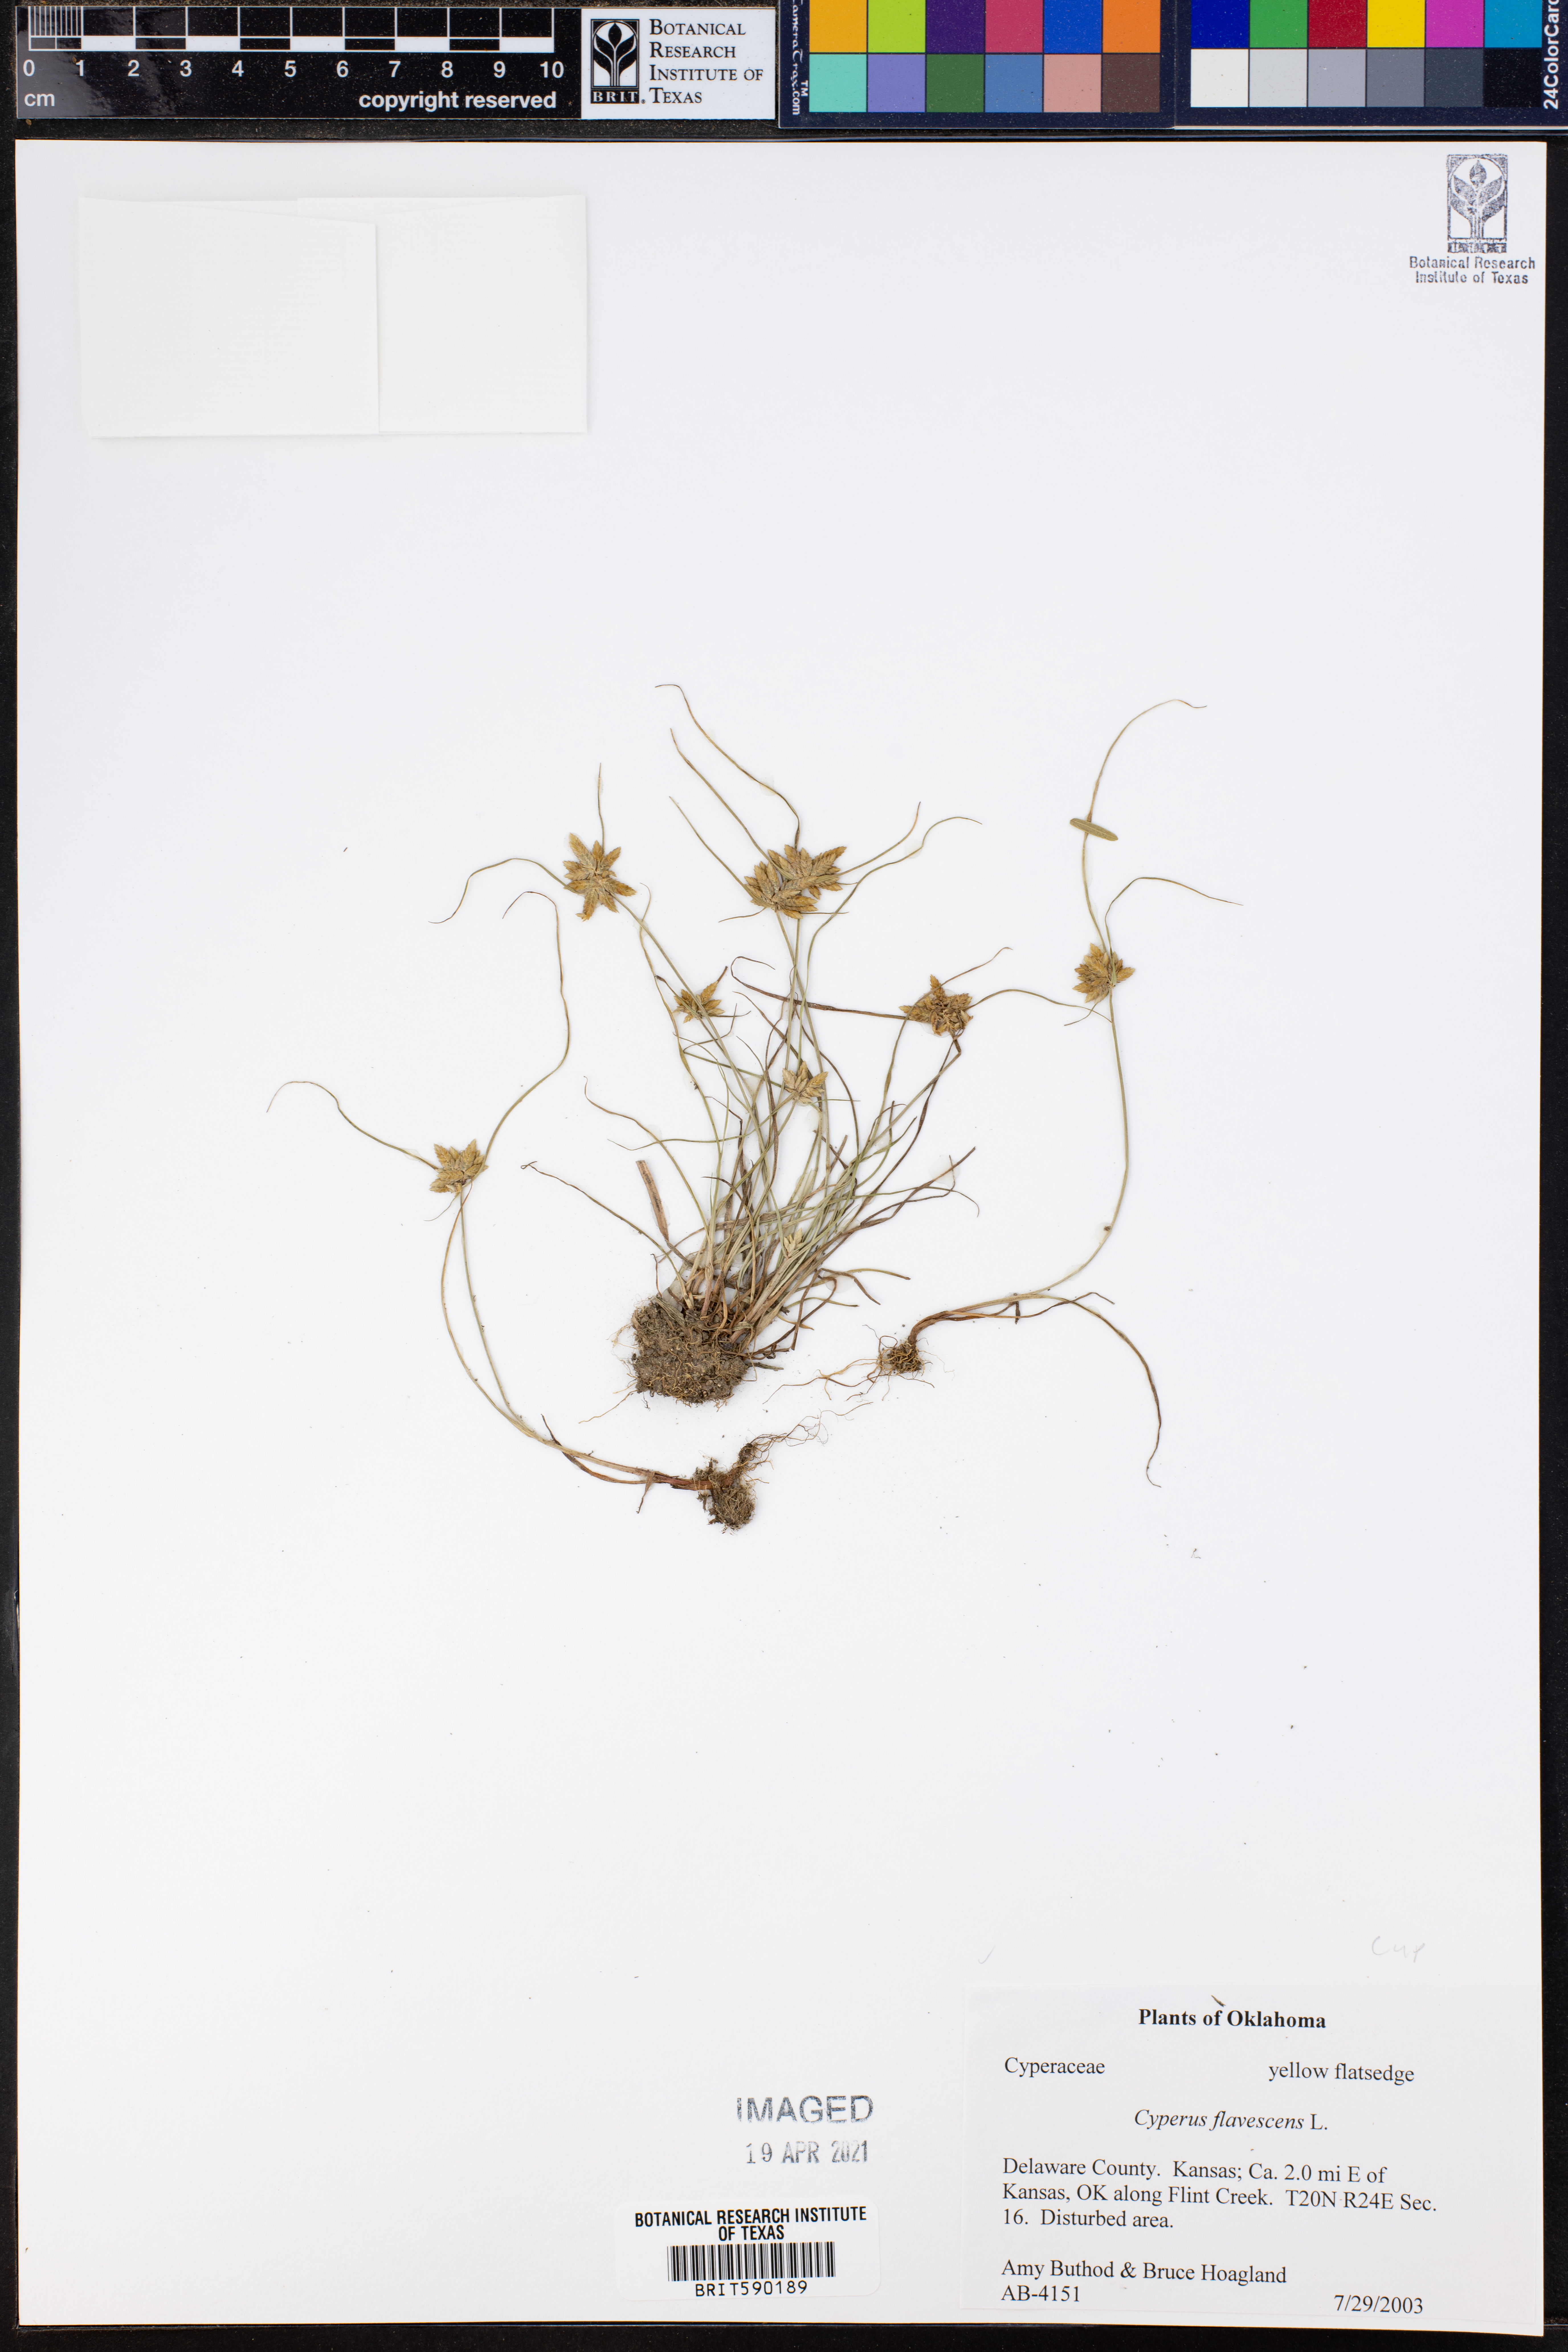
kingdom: Plantae
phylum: Tracheophyta
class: Liliopsida
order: Poales
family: Cyperaceae
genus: Cyperus
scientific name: Cyperus flavescens
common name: Yellow galingale
